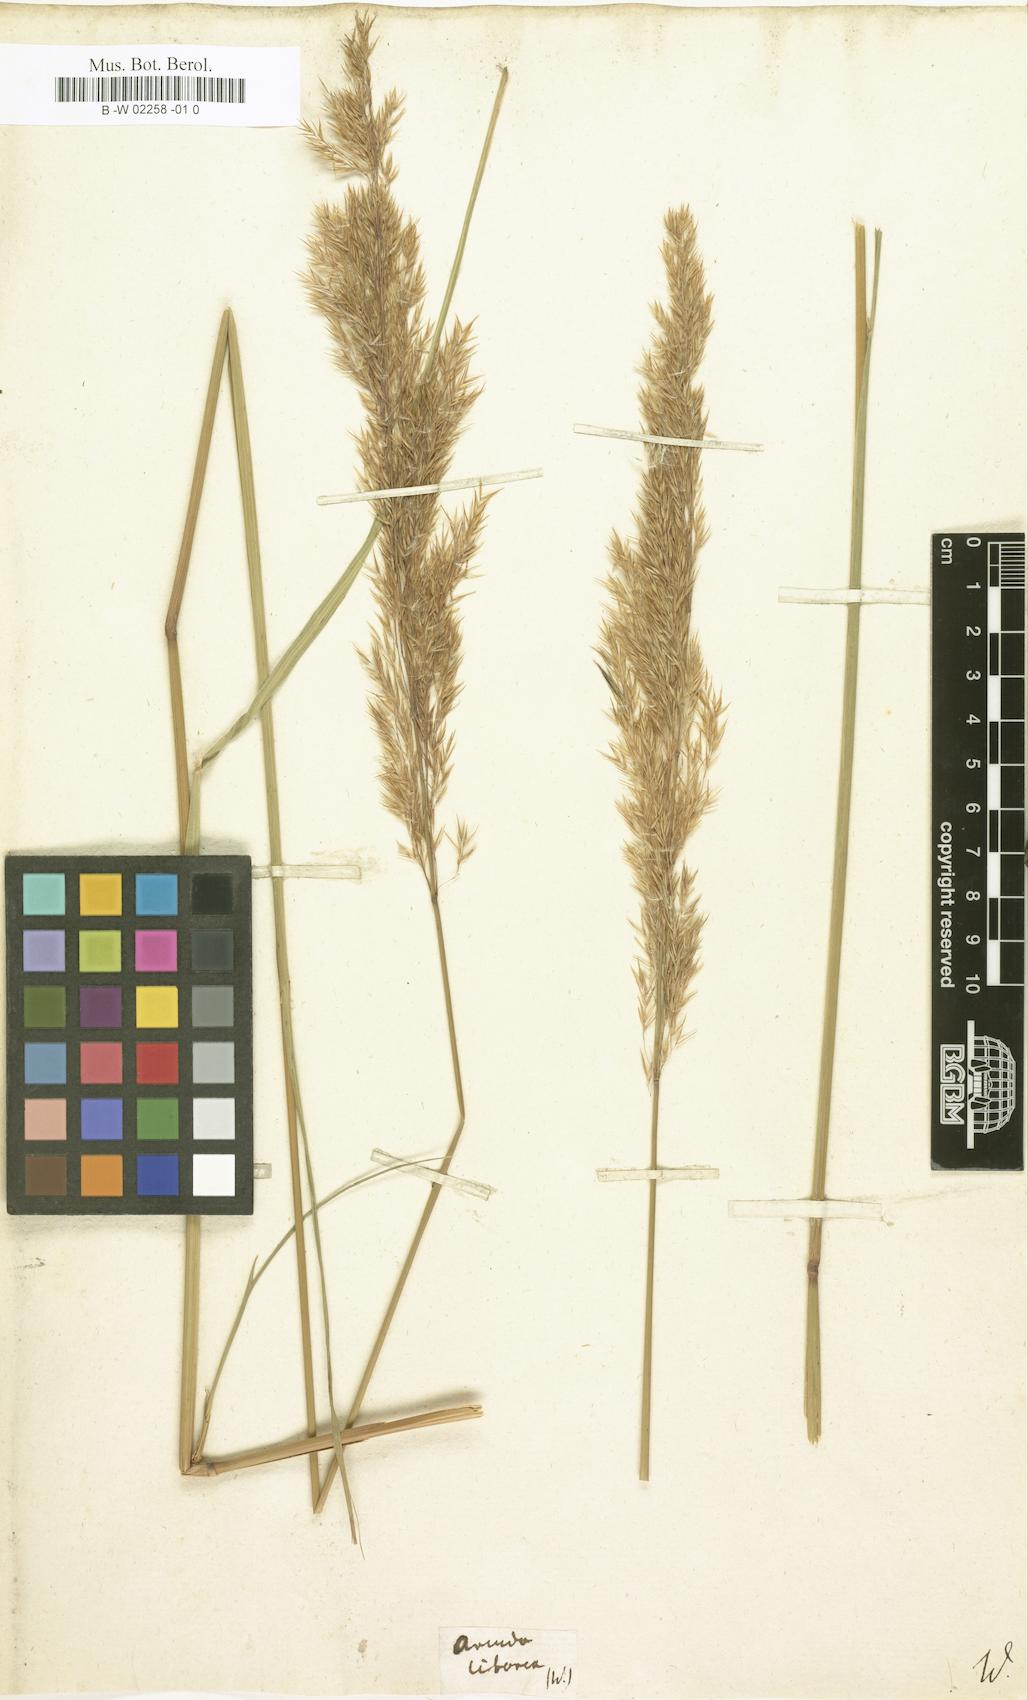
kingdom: Plantae
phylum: Tracheophyta
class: Liliopsida
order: Poales
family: Poaceae
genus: Calamagrostis
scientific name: Calamagrostis pseudophragmites
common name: Coastal small-reed
